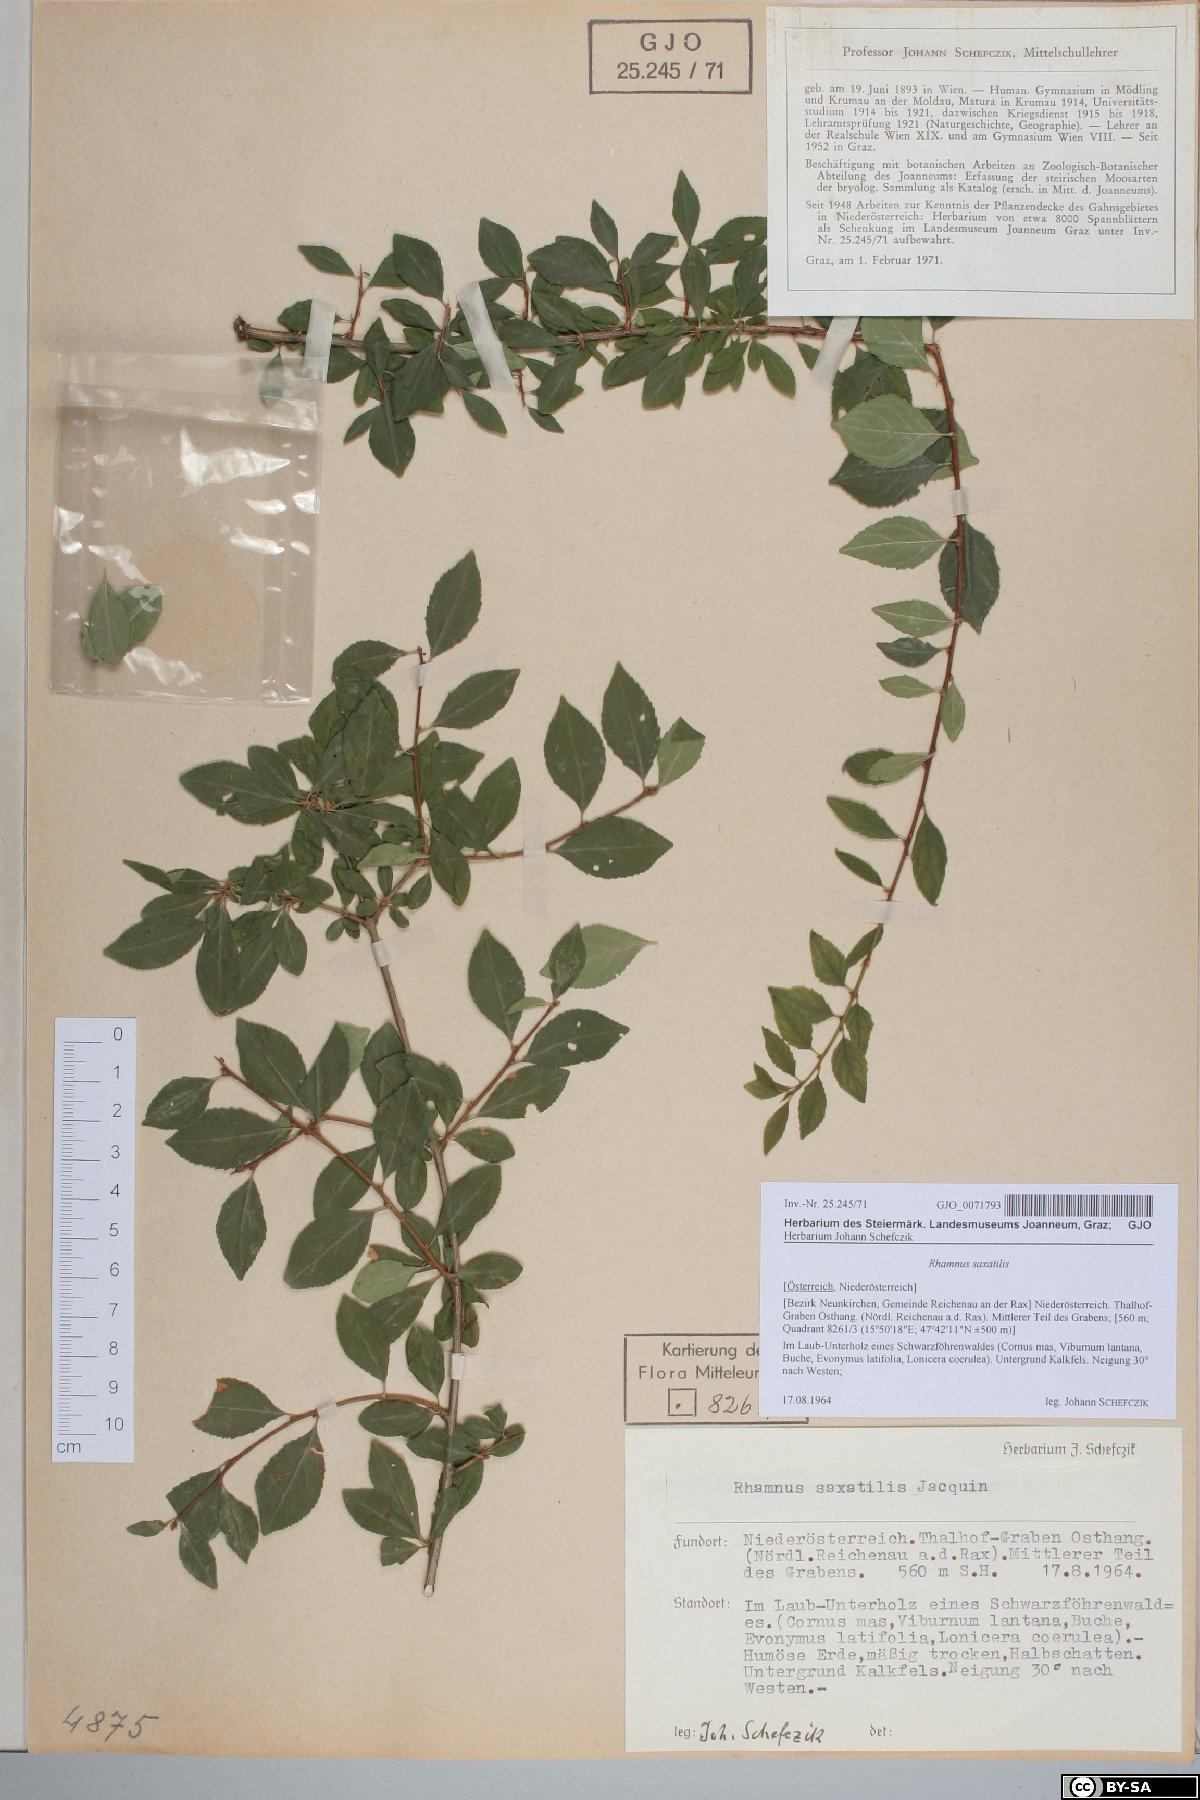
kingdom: Plantae
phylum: Tracheophyta
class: Magnoliopsida
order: Rosales
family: Rhamnaceae
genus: Rhamnus
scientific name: Rhamnus saxatilis
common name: Rock buckthorn
